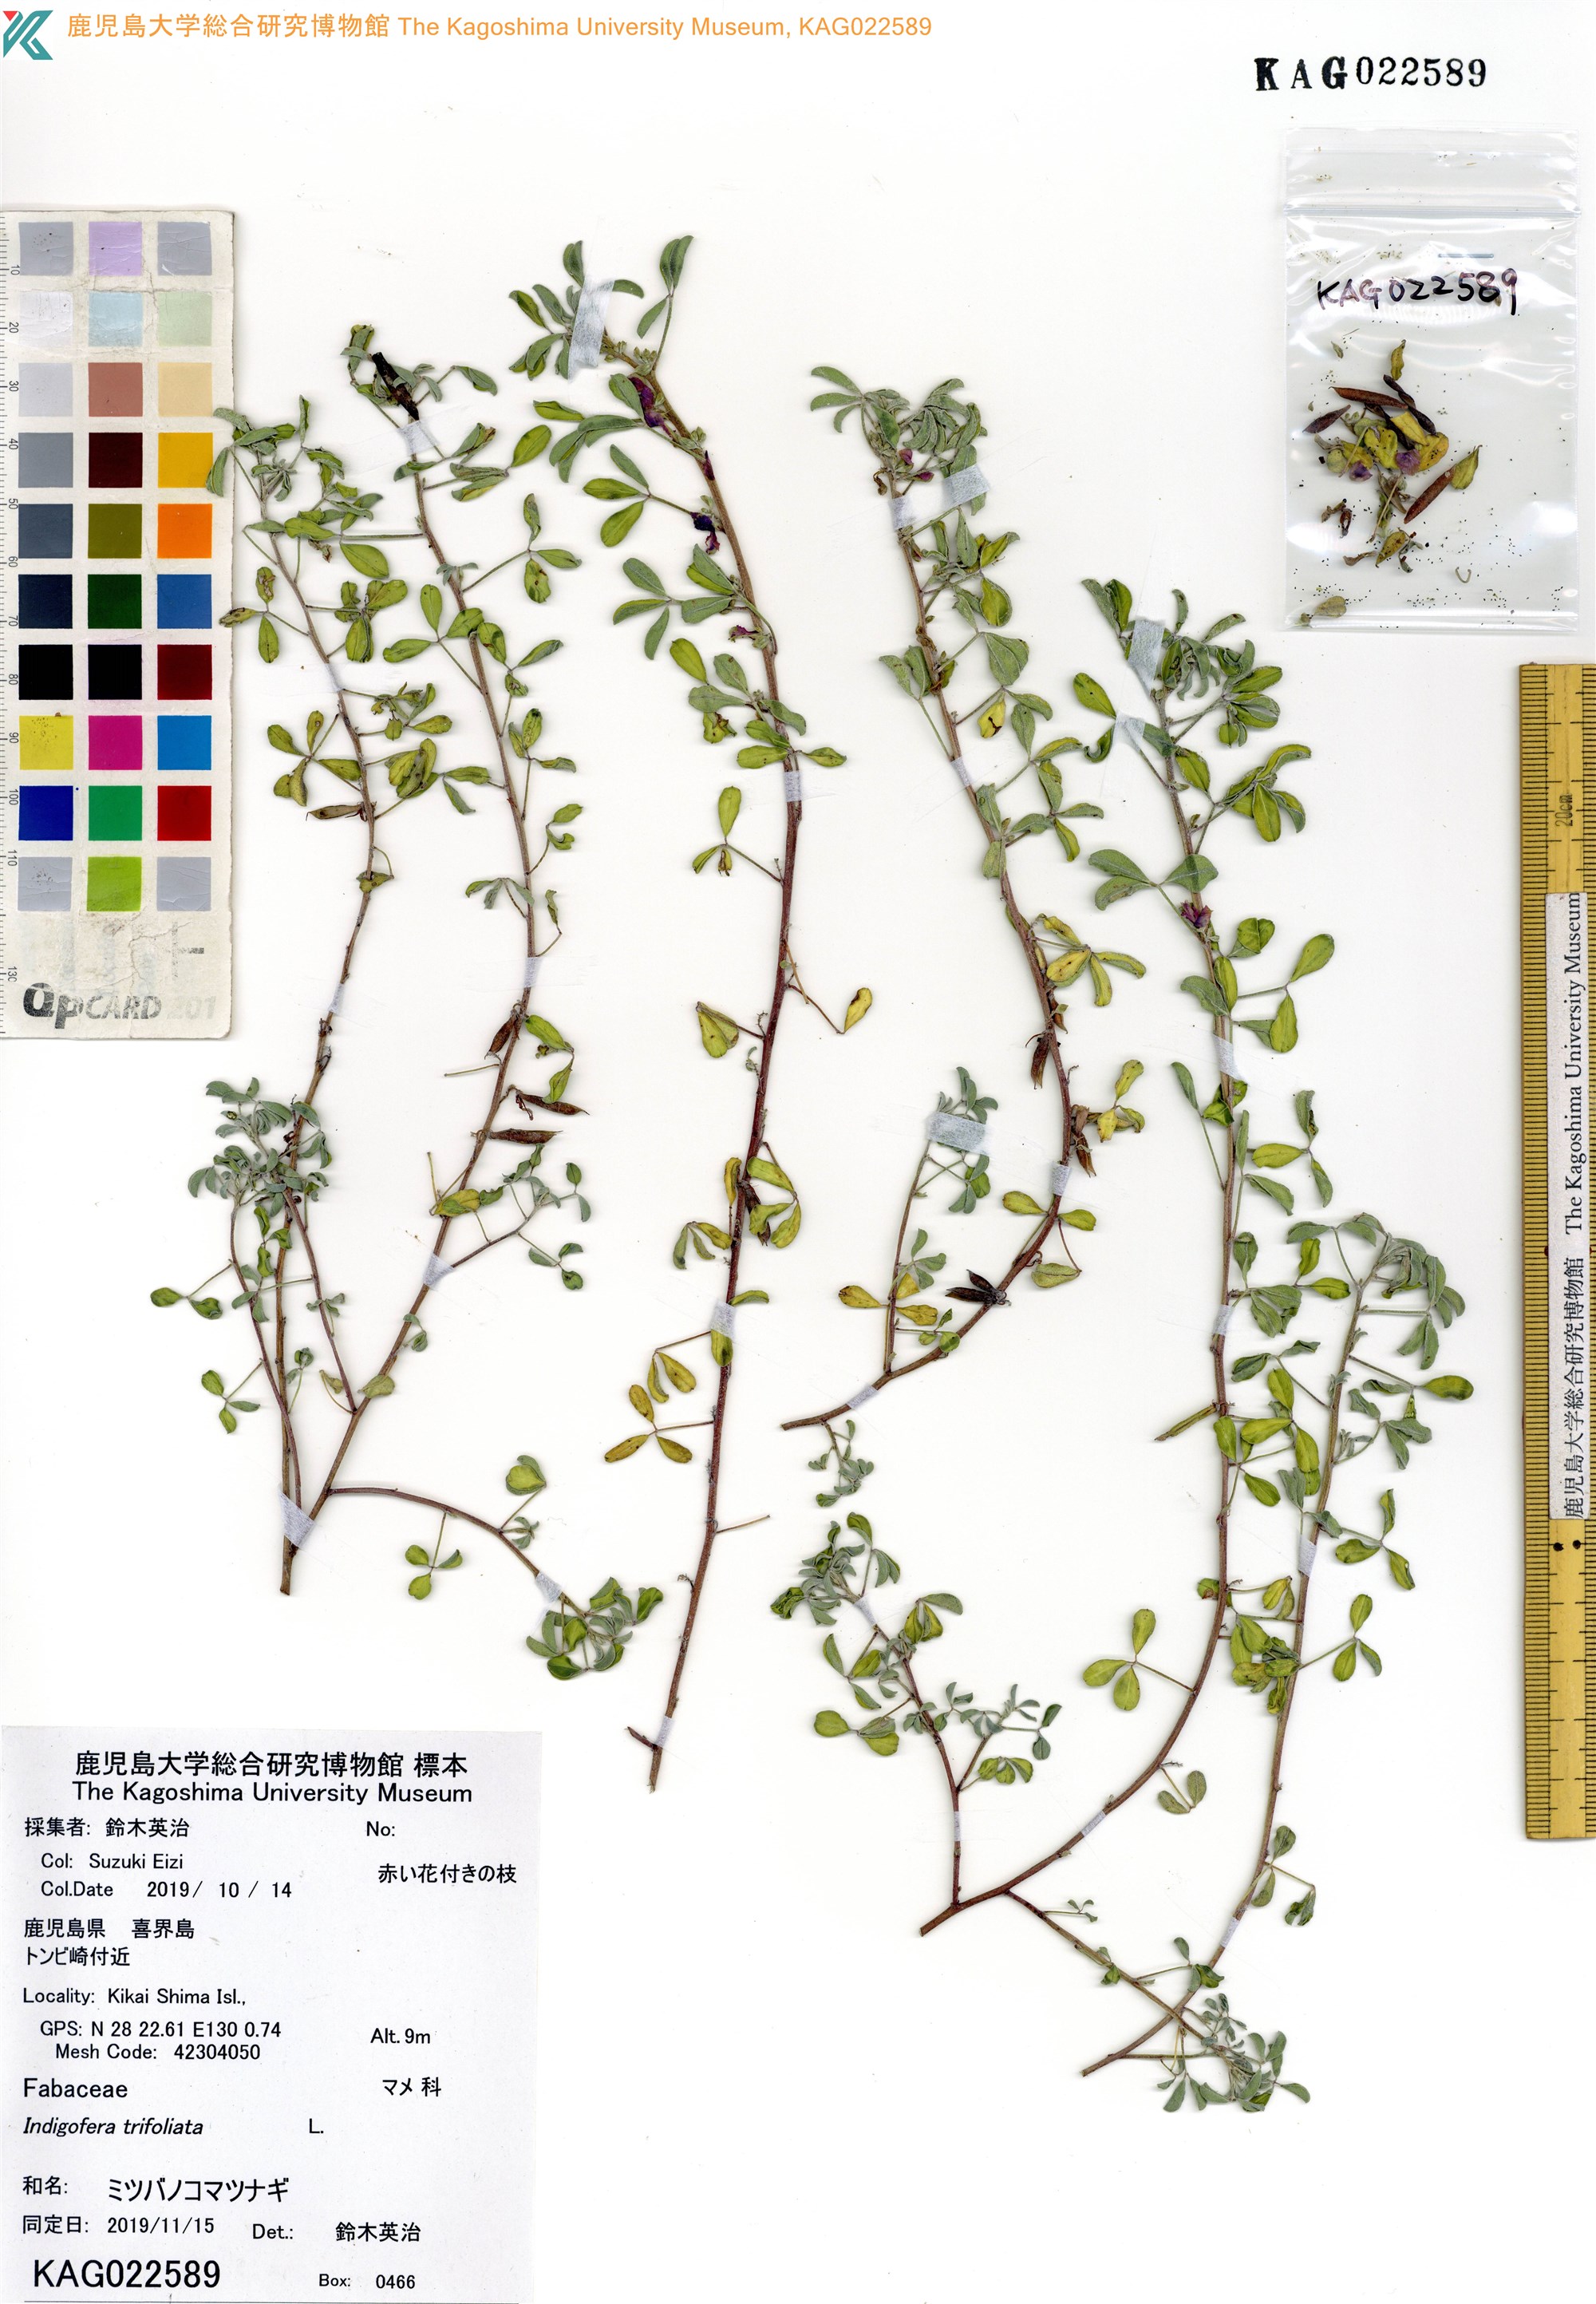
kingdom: Plantae
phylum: Tracheophyta
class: Magnoliopsida
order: Fabales
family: Fabaceae
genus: Indigofera
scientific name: Indigofera trifoliata
